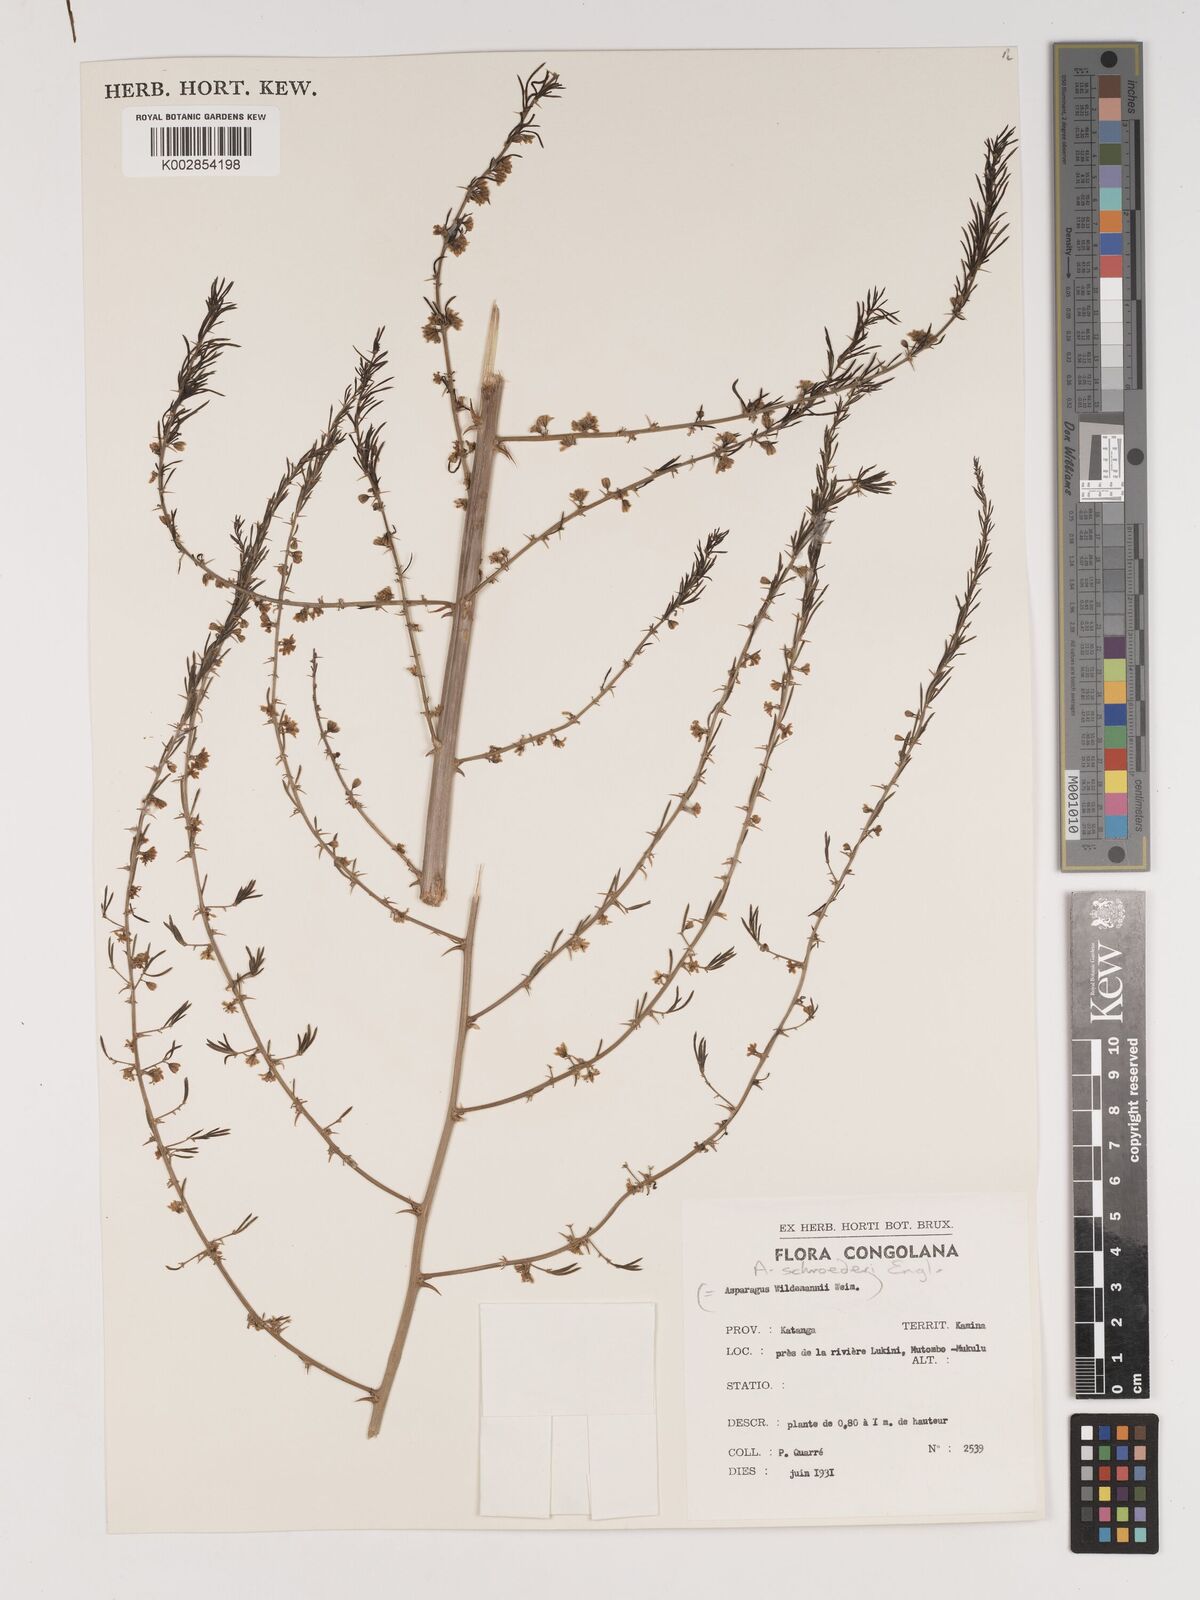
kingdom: Plantae
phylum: Tracheophyta
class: Liliopsida
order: Asparagales
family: Asparagaceae
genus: Asparagus
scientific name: Asparagus schroederi
